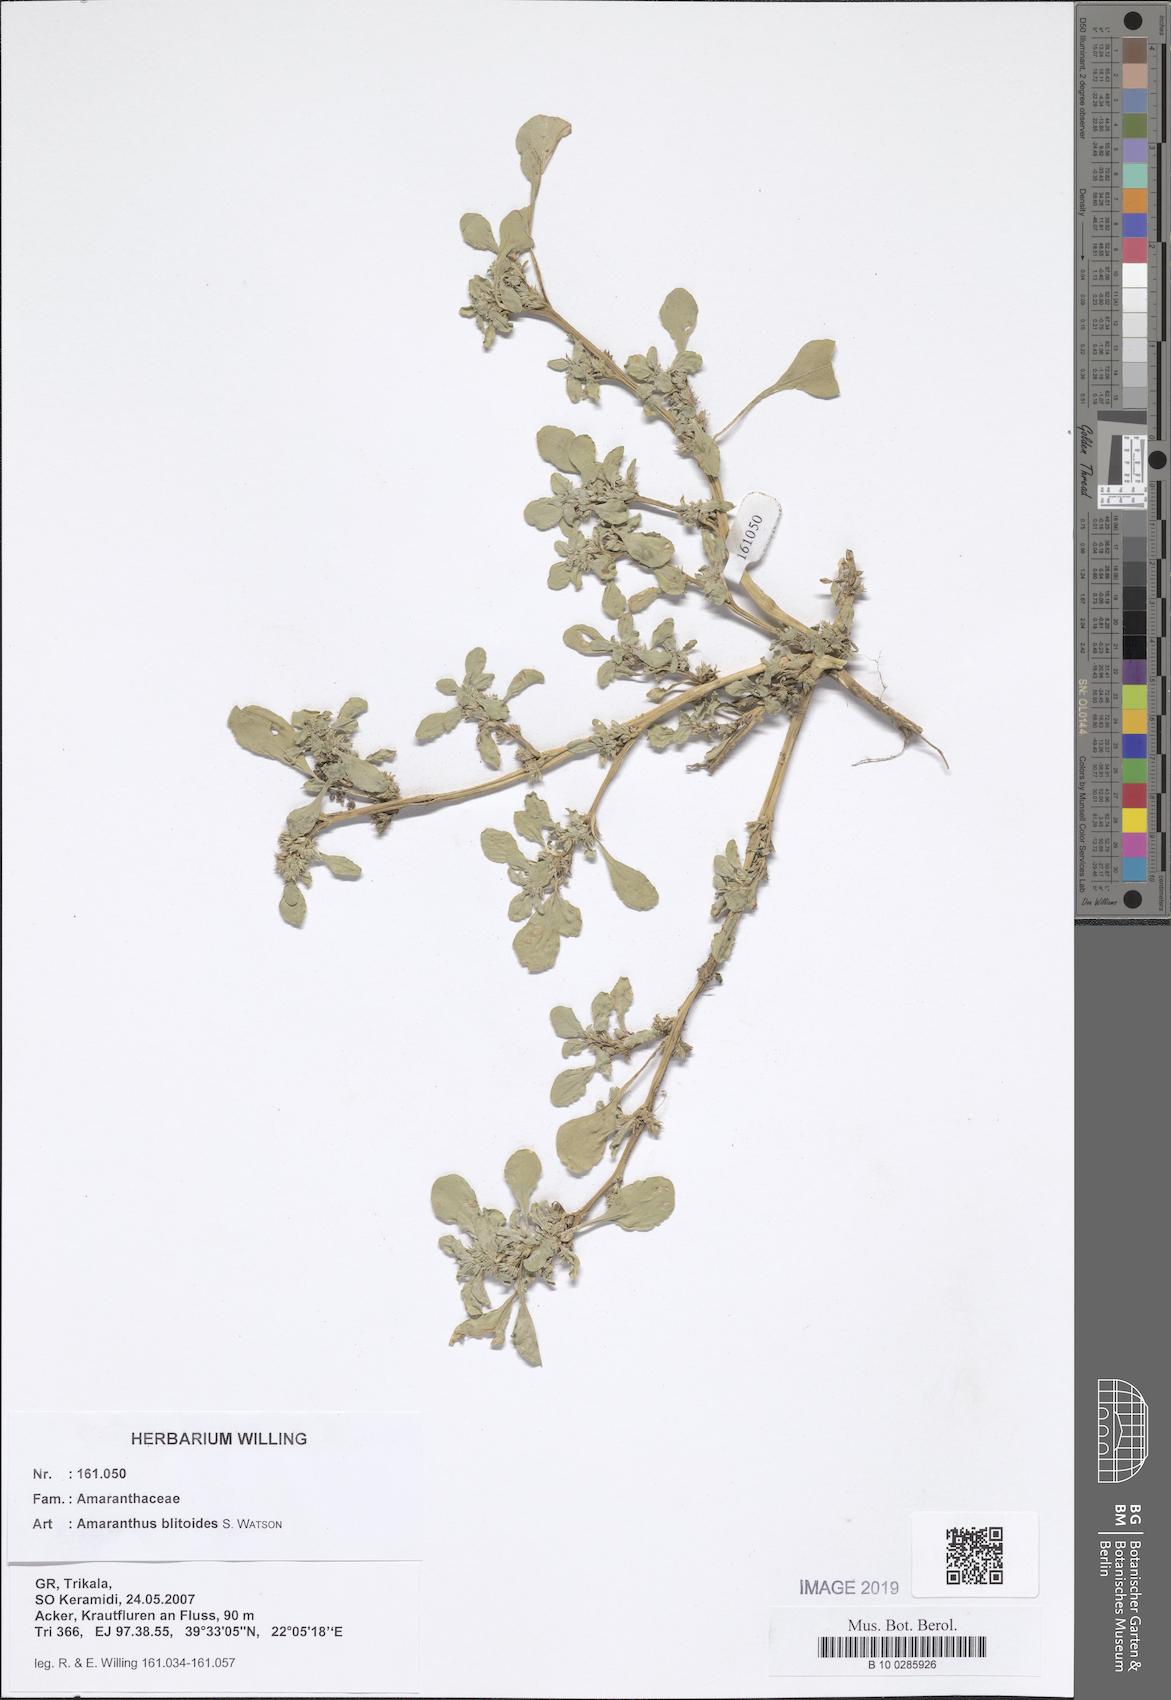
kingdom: Plantae
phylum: Tracheophyta
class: Magnoliopsida
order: Caryophyllales
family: Amaranthaceae
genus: Amaranthus
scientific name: Amaranthus blitoides
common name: Prostrate pigweed
